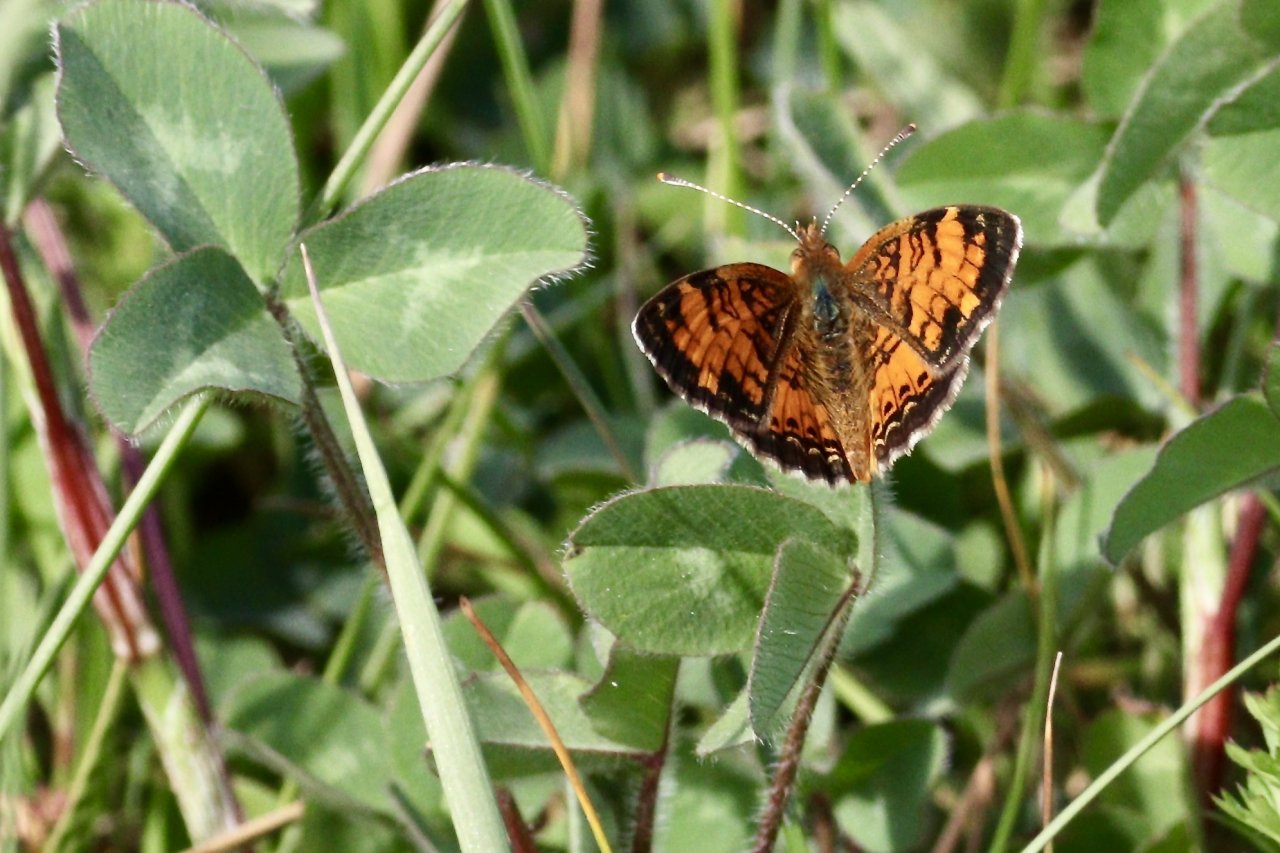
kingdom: Animalia
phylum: Arthropoda
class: Insecta
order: Lepidoptera
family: Nymphalidae
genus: Phyciodes
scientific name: Phyciodes tharos
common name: Northern Crescent
